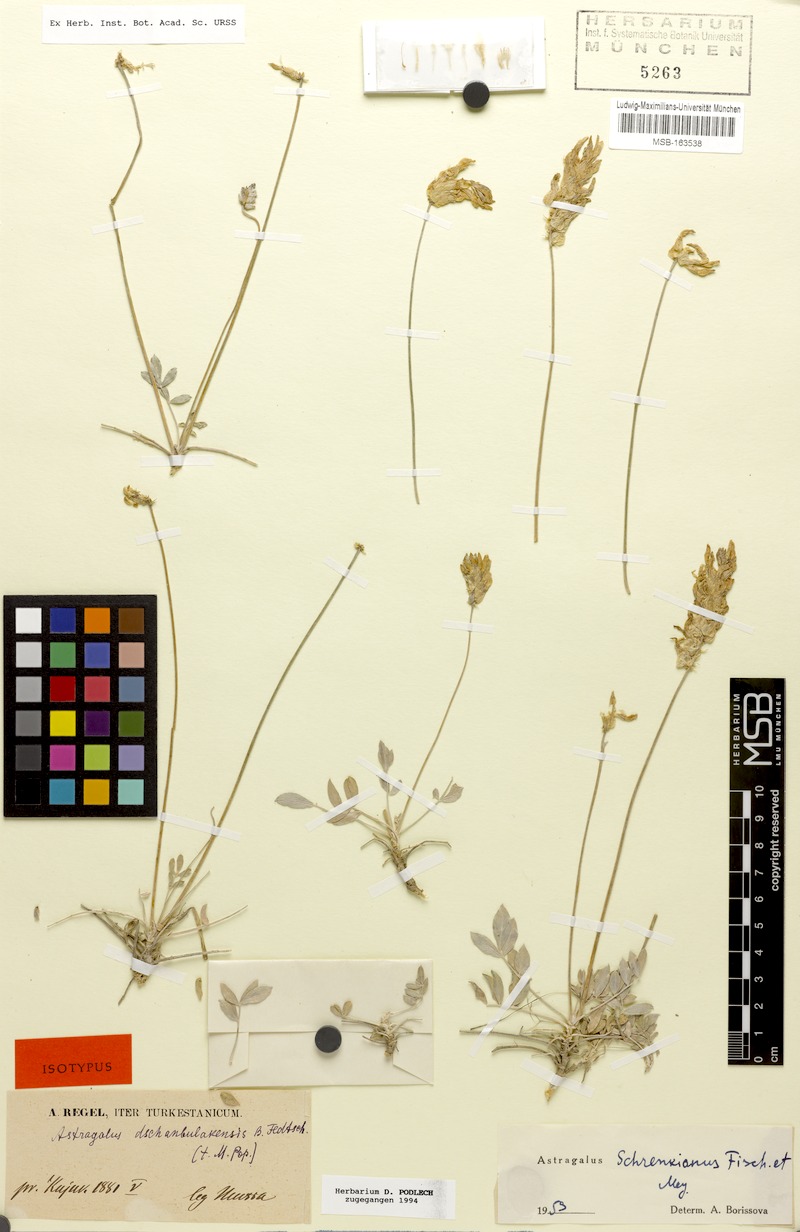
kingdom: Plantae
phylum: Tracheophyta
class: Magnoliopsida
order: Fabales
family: Fabaceae
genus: Astragalus
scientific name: Astragalus schrenkianus
